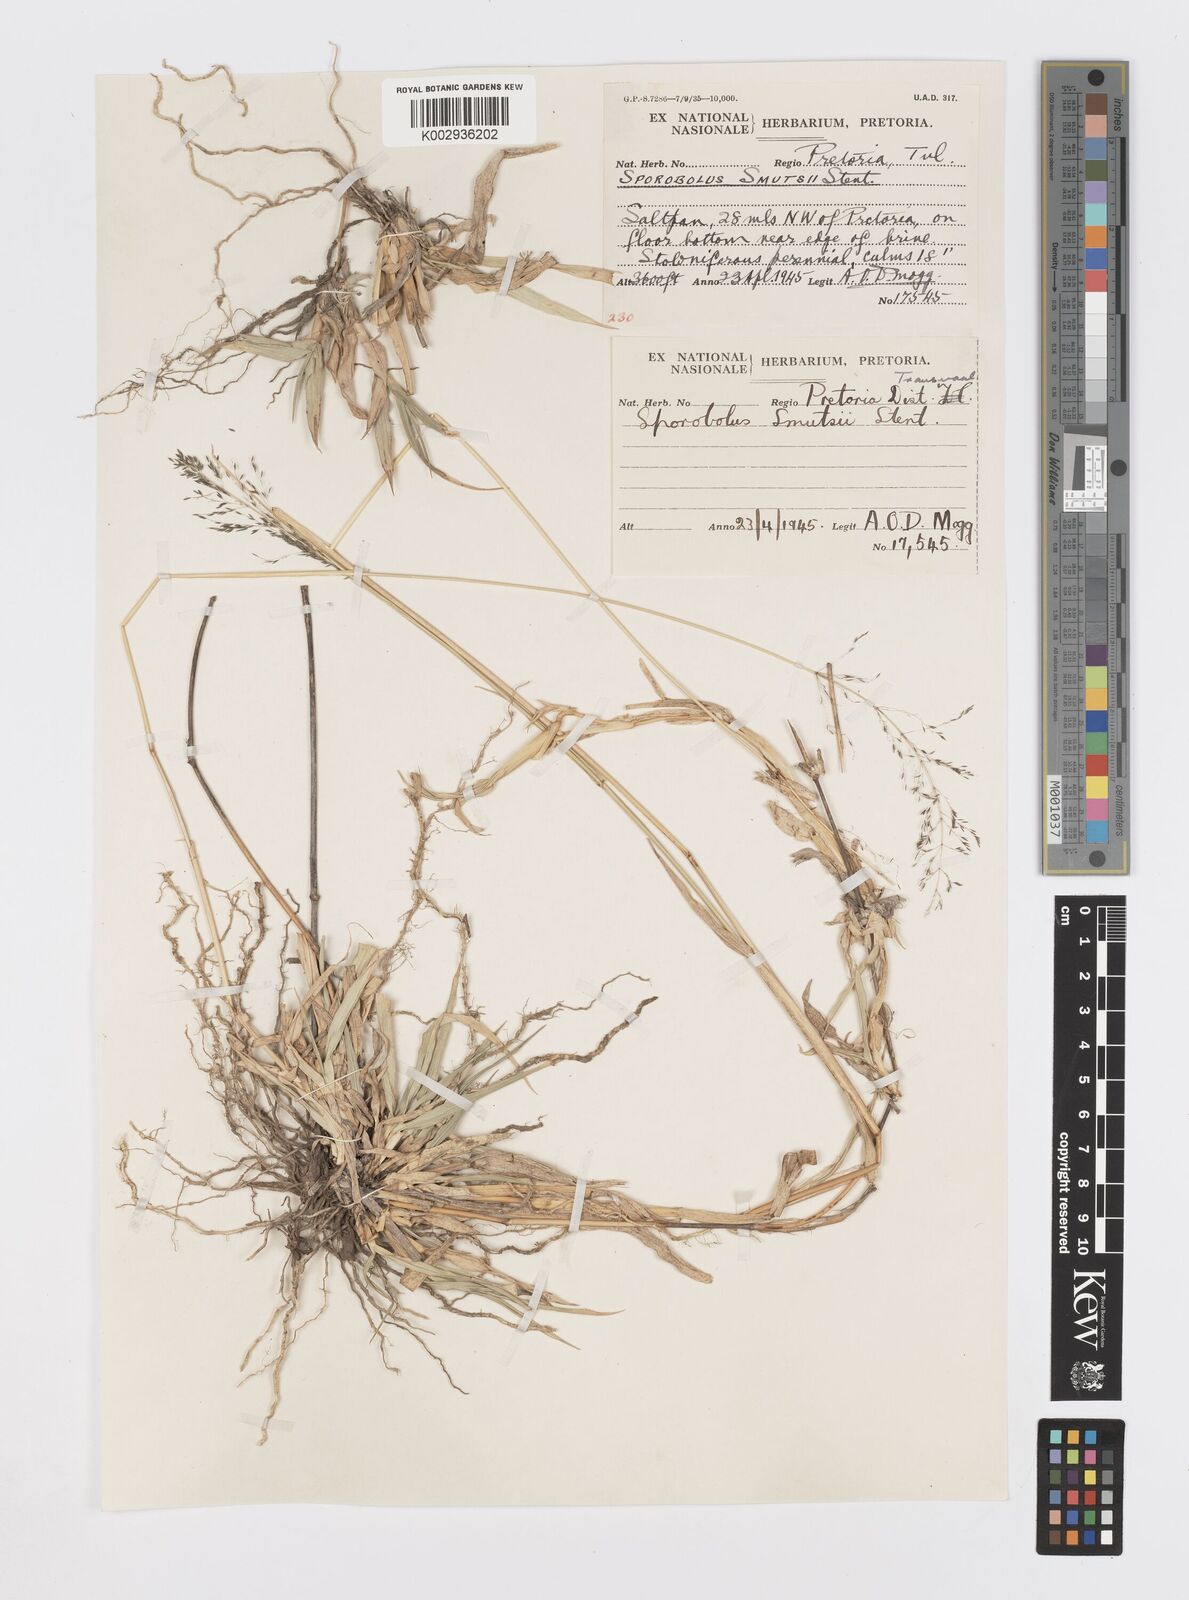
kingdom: Plantae
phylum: Tracheophyta
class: Liliopsida
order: Poales
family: Poaceae
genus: Sporobolus
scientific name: Sporobolus ioclados
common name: Pan dropseed
